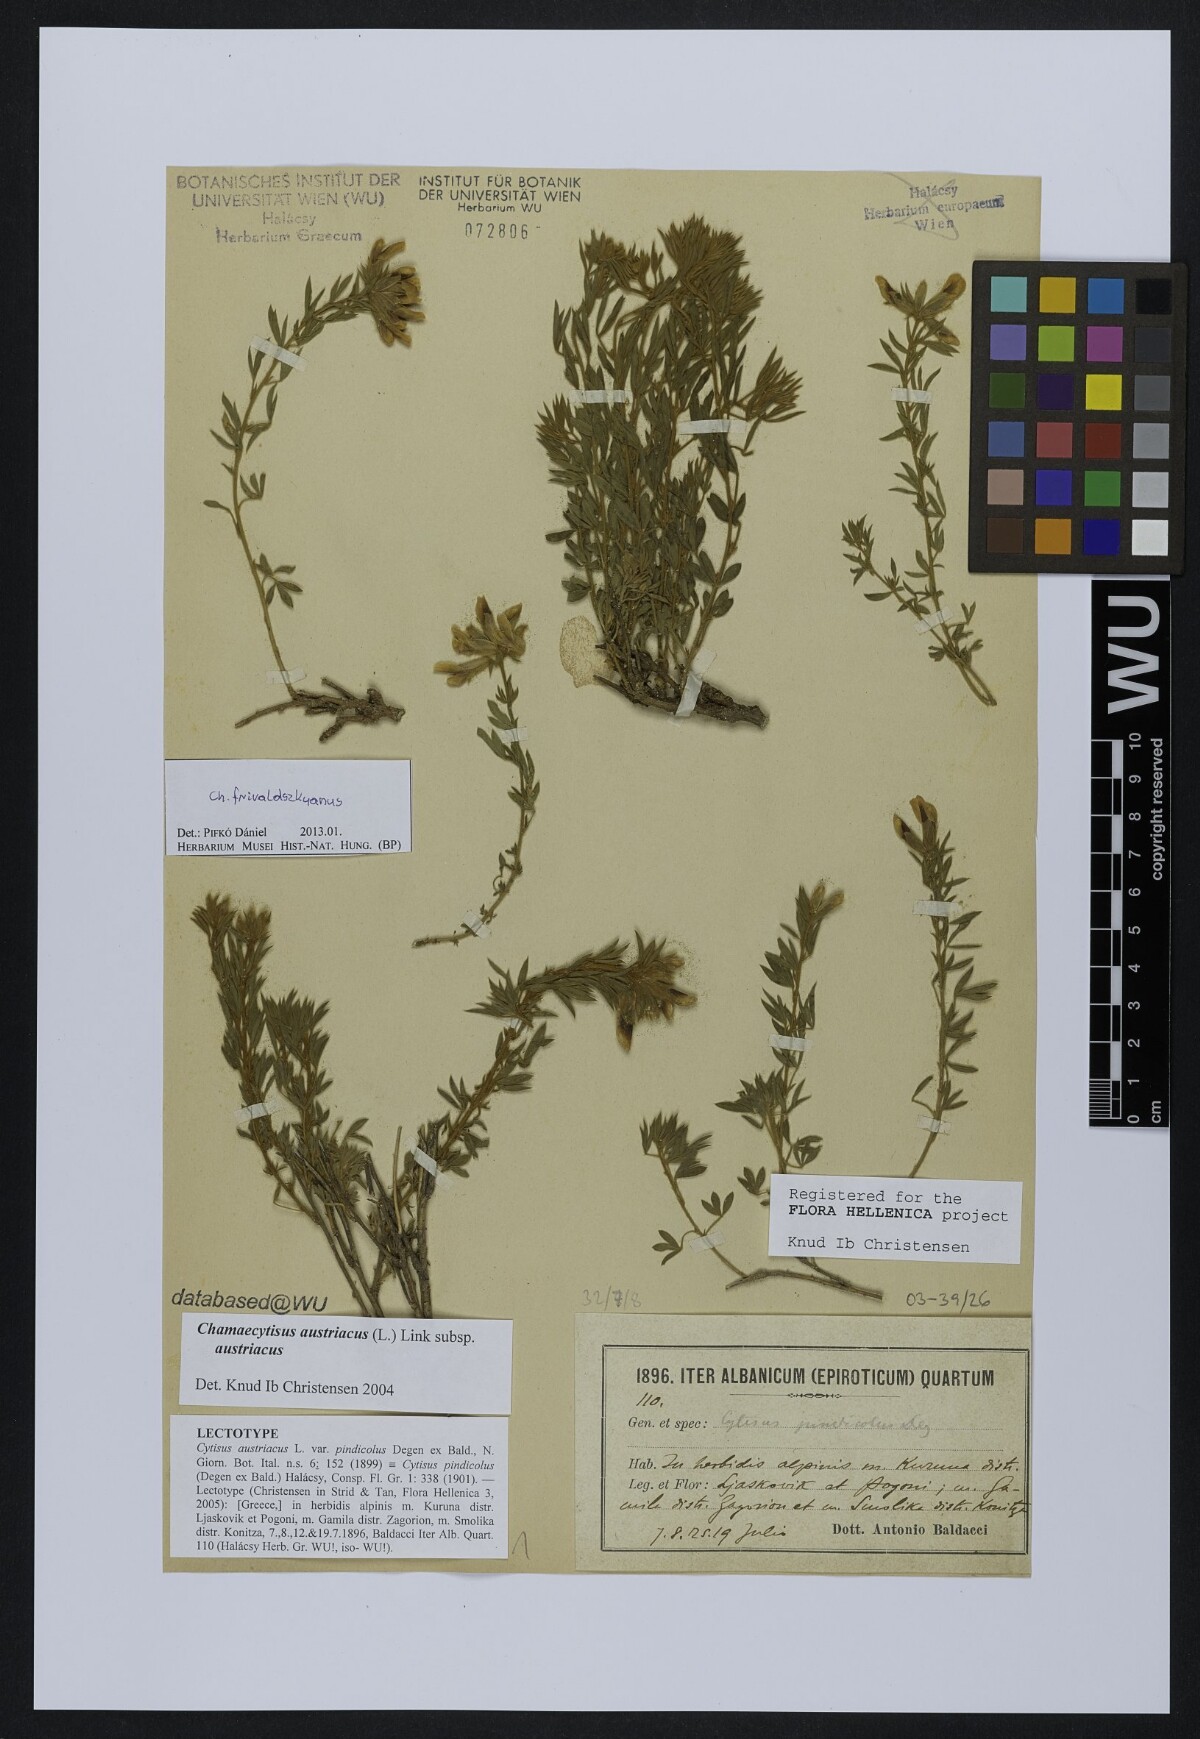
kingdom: Plantae
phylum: Tracheophyta
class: Magnoliopsida
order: Fabales
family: Fabaceae
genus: Chamaecytisus
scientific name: Chamaecytisus austriacus
